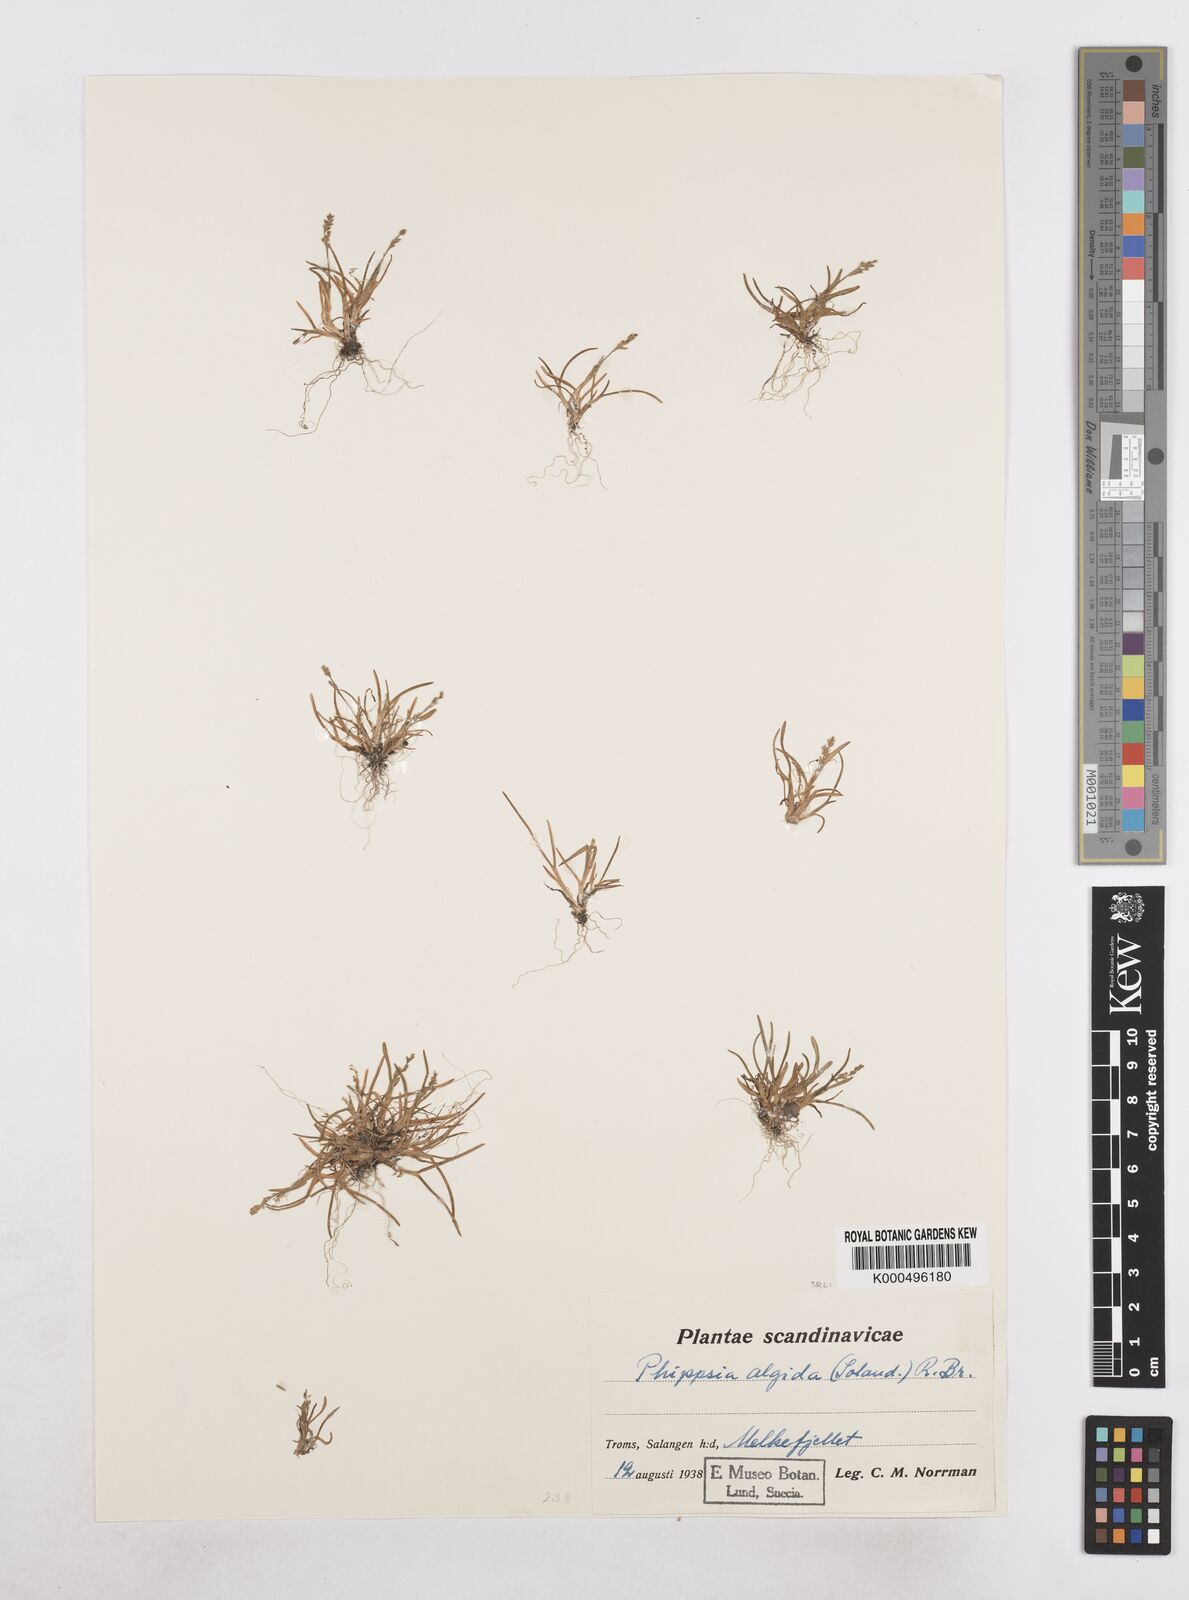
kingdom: Plantae
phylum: Tracheophyta
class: Liliopsida
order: Poales
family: Poaceae
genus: Phippsia
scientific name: Phippsia algida
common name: Ice grass
